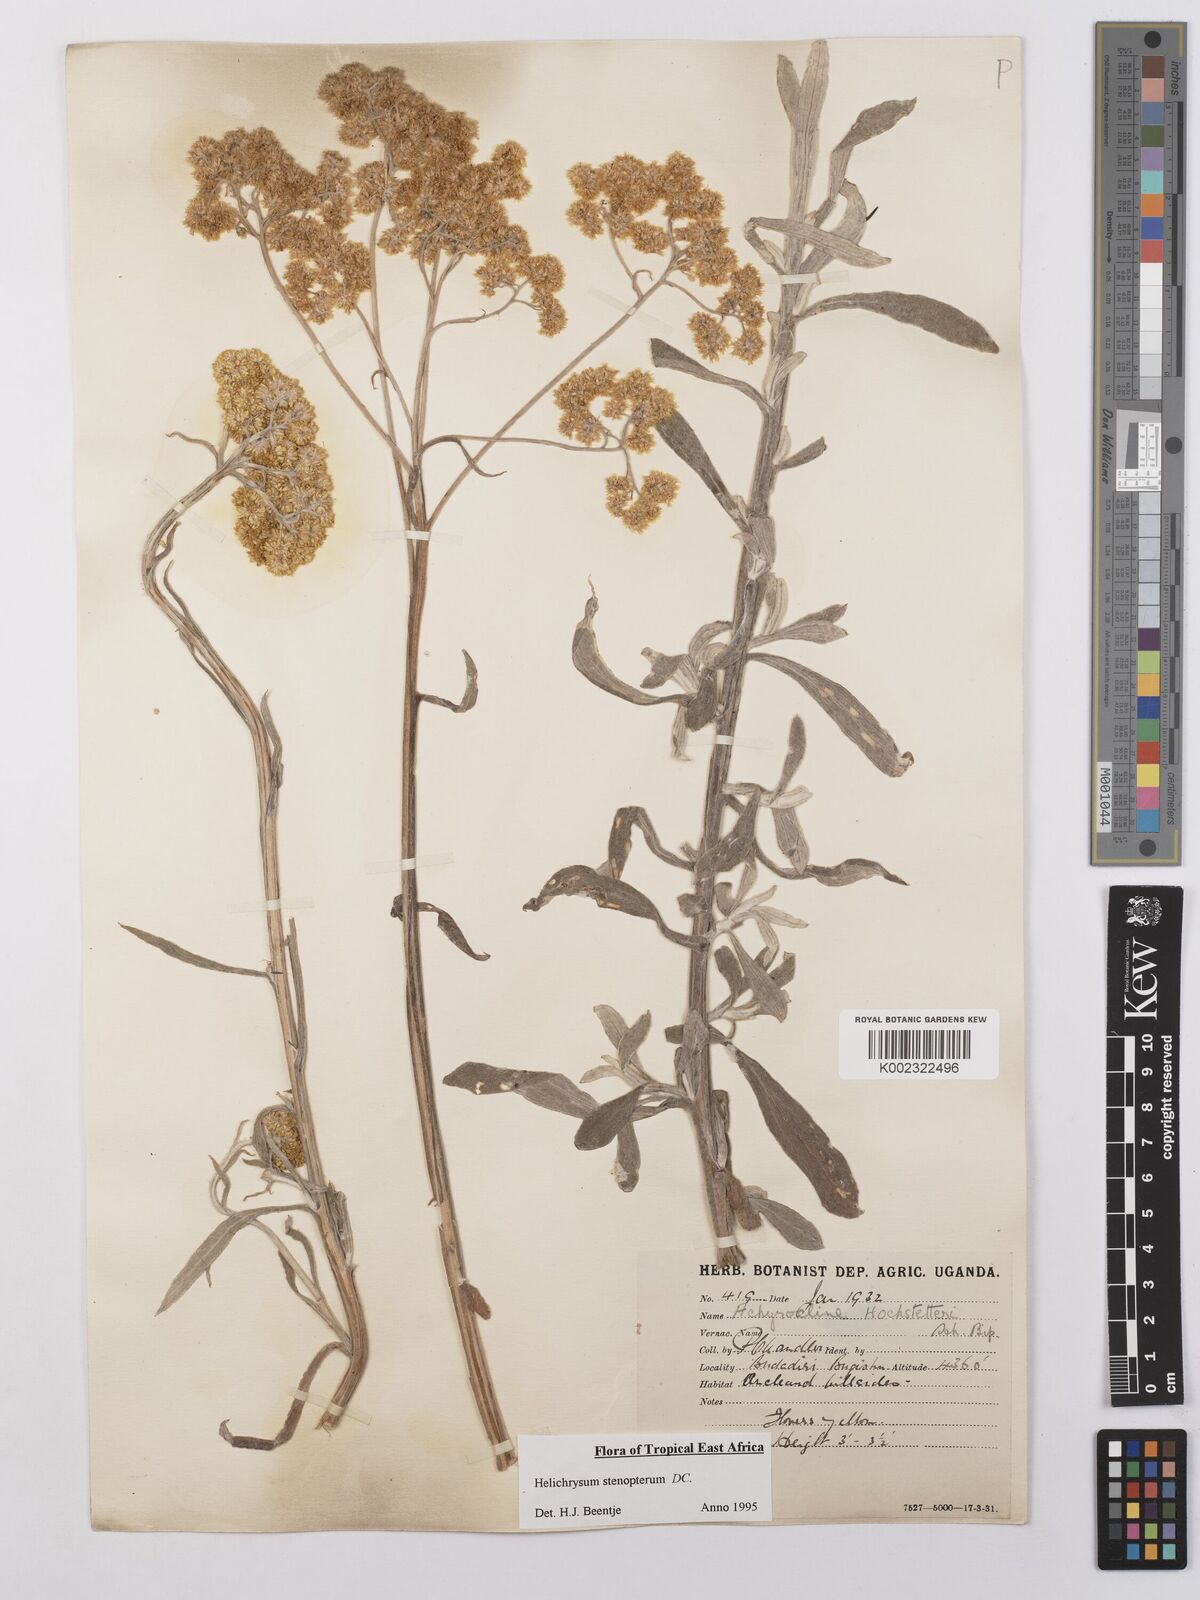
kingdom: Plantae
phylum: Tracheophyta
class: Magnoliopsida
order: Asterales
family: Asteraceae
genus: Helichrysum
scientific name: Helichrysum stenopterum
